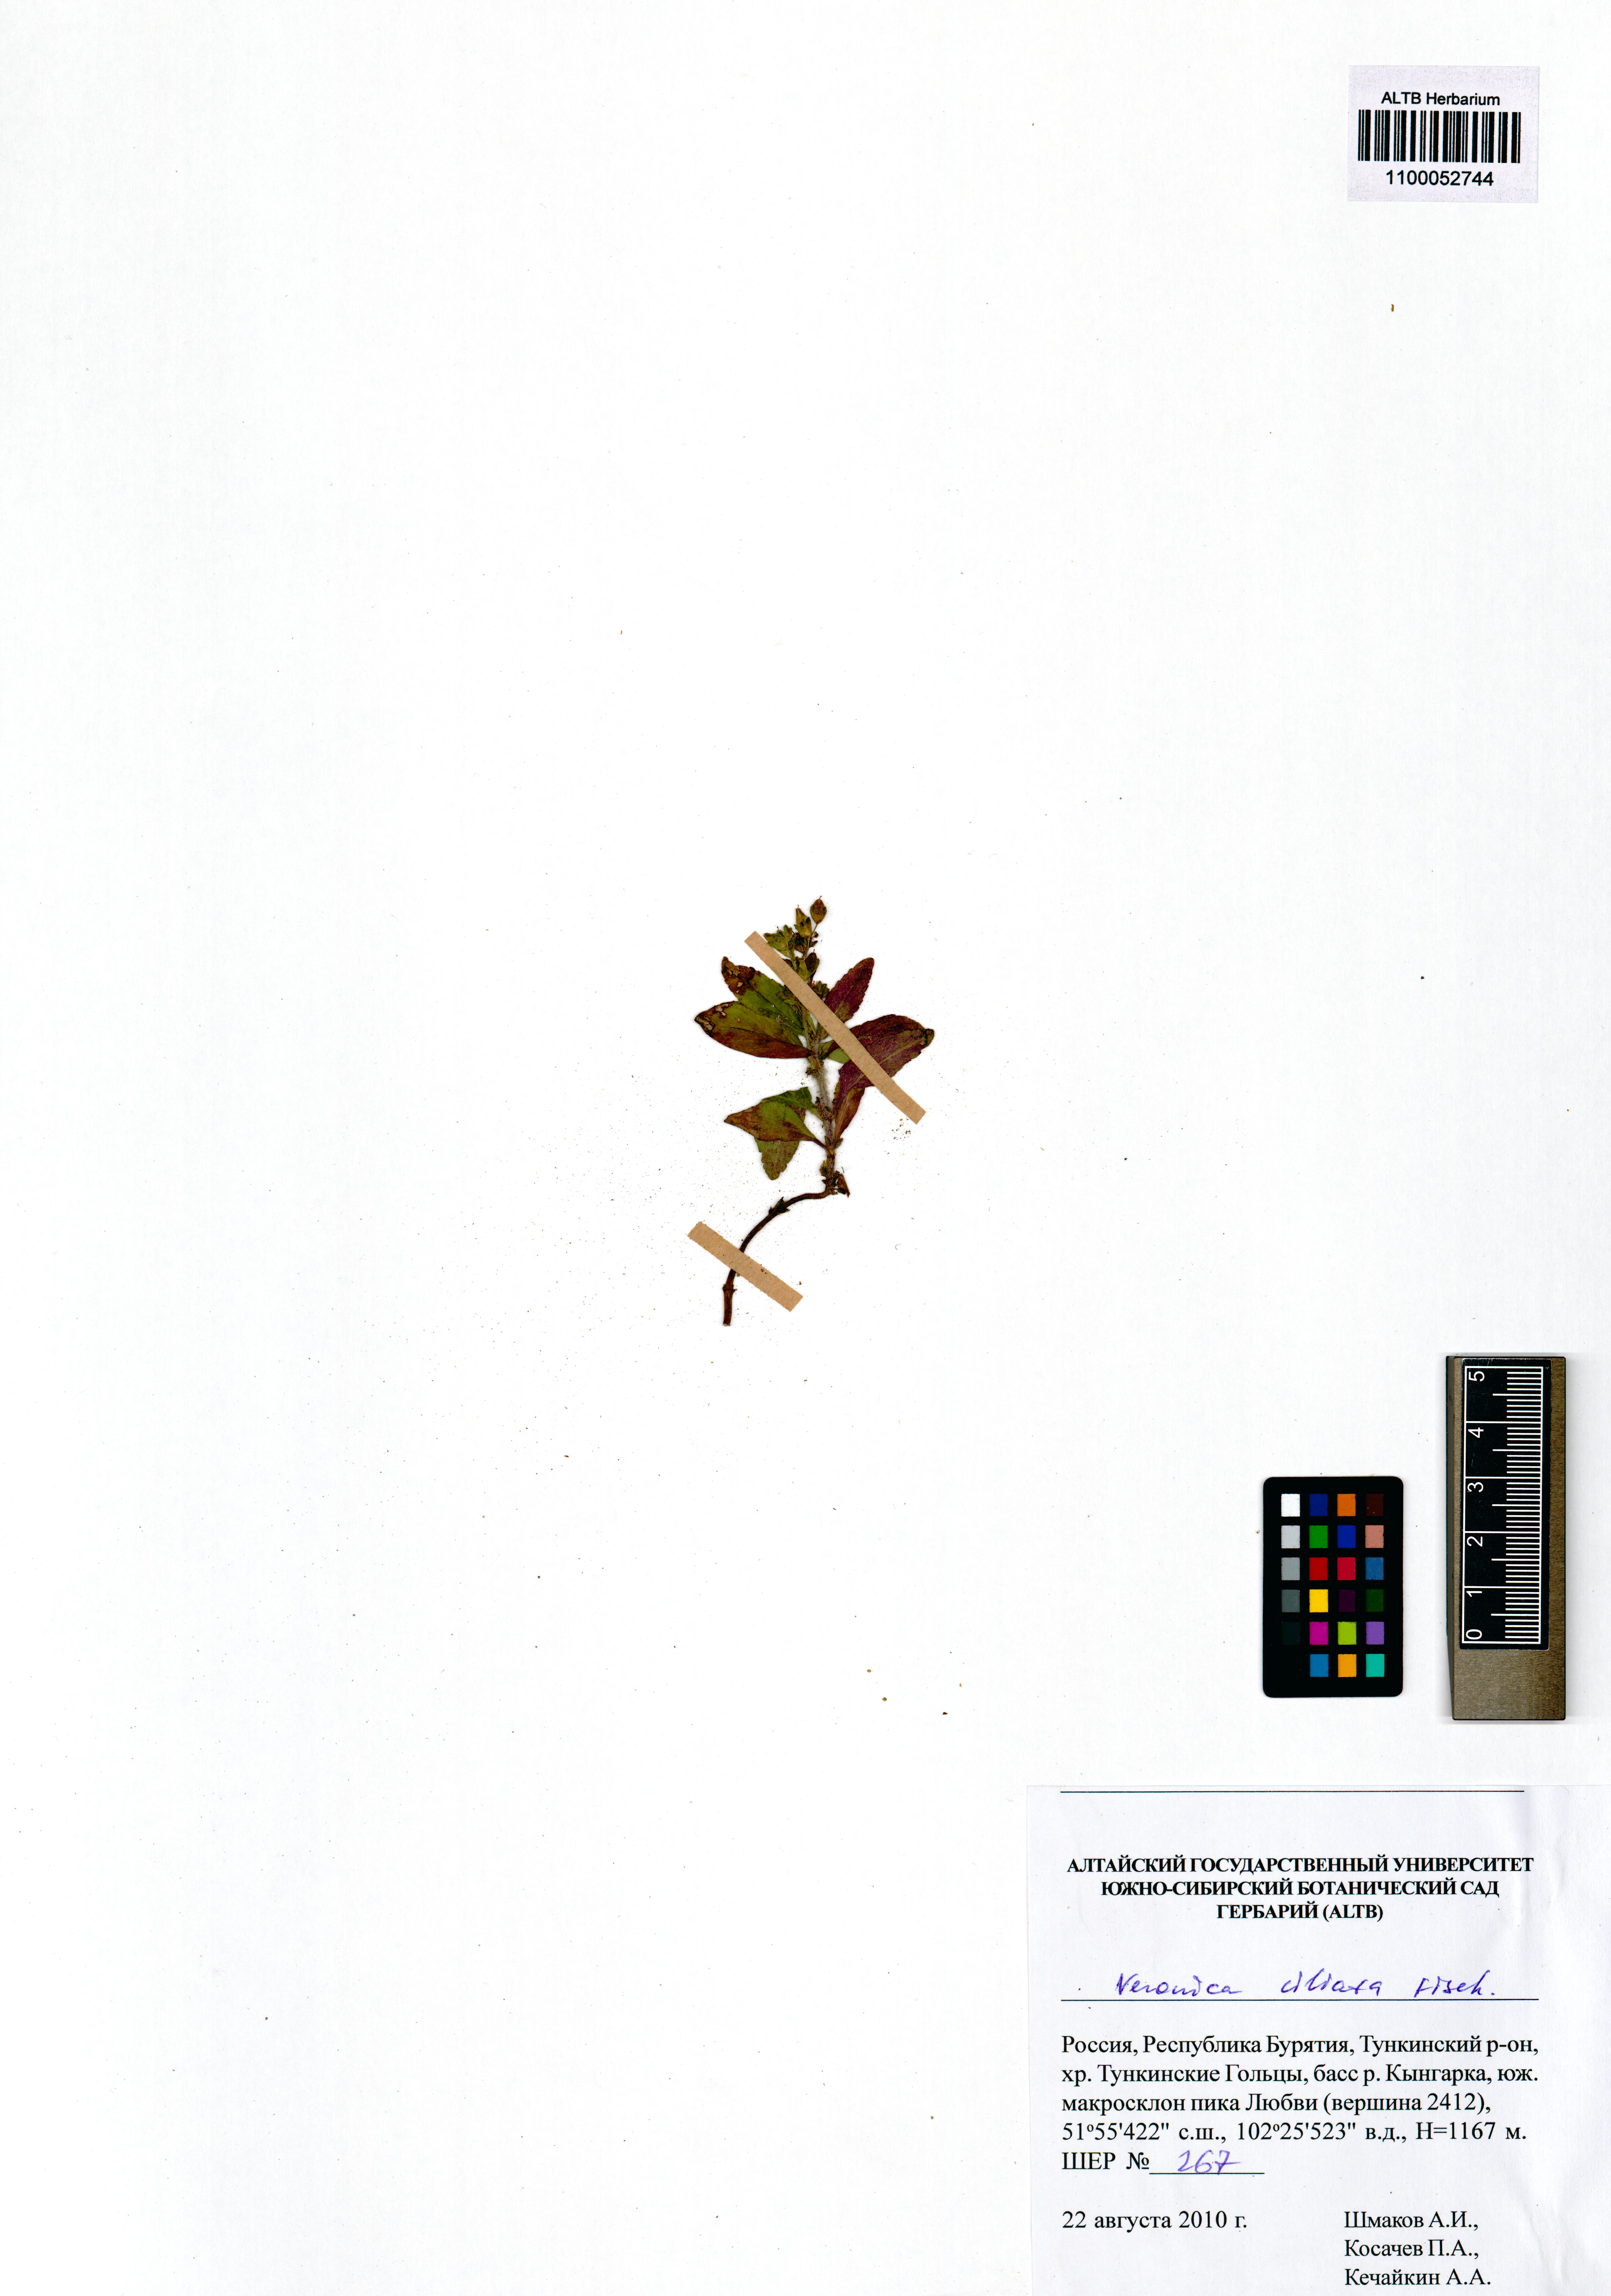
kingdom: Plantae
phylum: Tracheophyta
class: Magnoliopsida
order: Lamiales
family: Plantaginaceae
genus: Veronica
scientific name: Veronica ciliata
